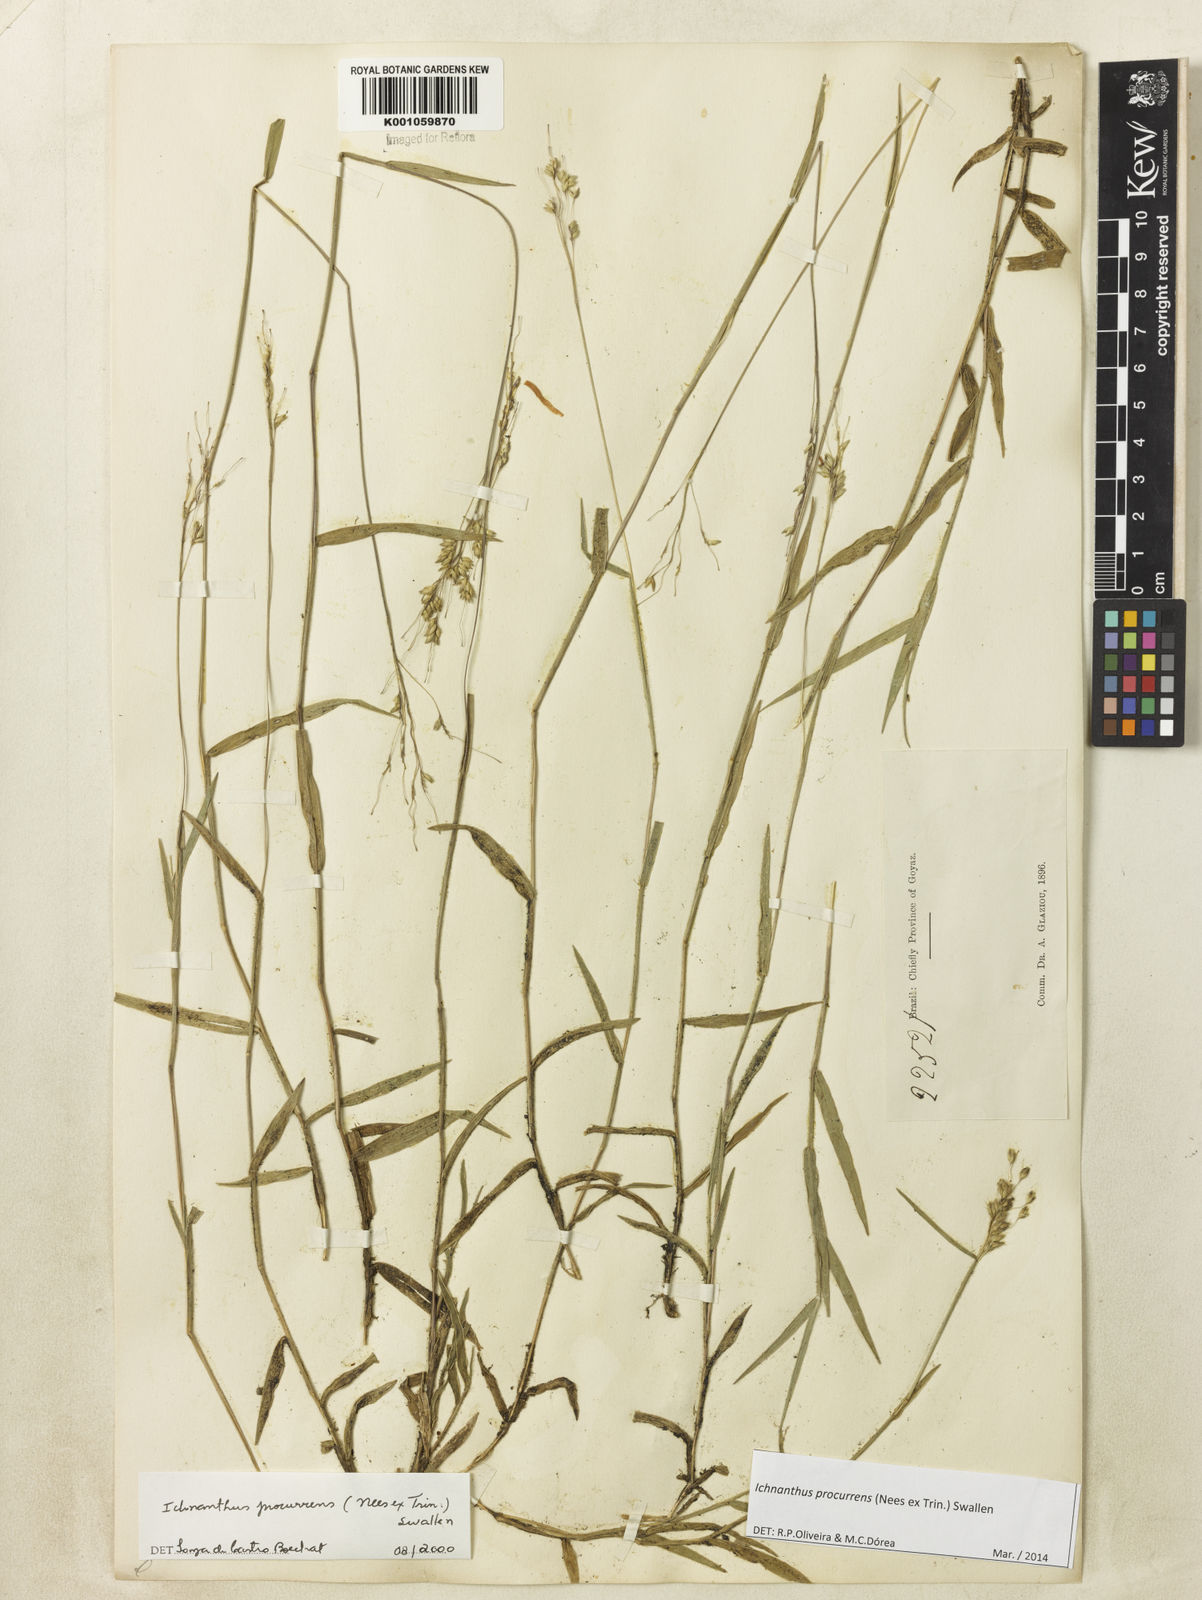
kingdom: Plantae
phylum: Tracheophyta
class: Liliopsida
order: Poales
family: Poaceae
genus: Oedochloa
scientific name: Oedochloa procurrens
